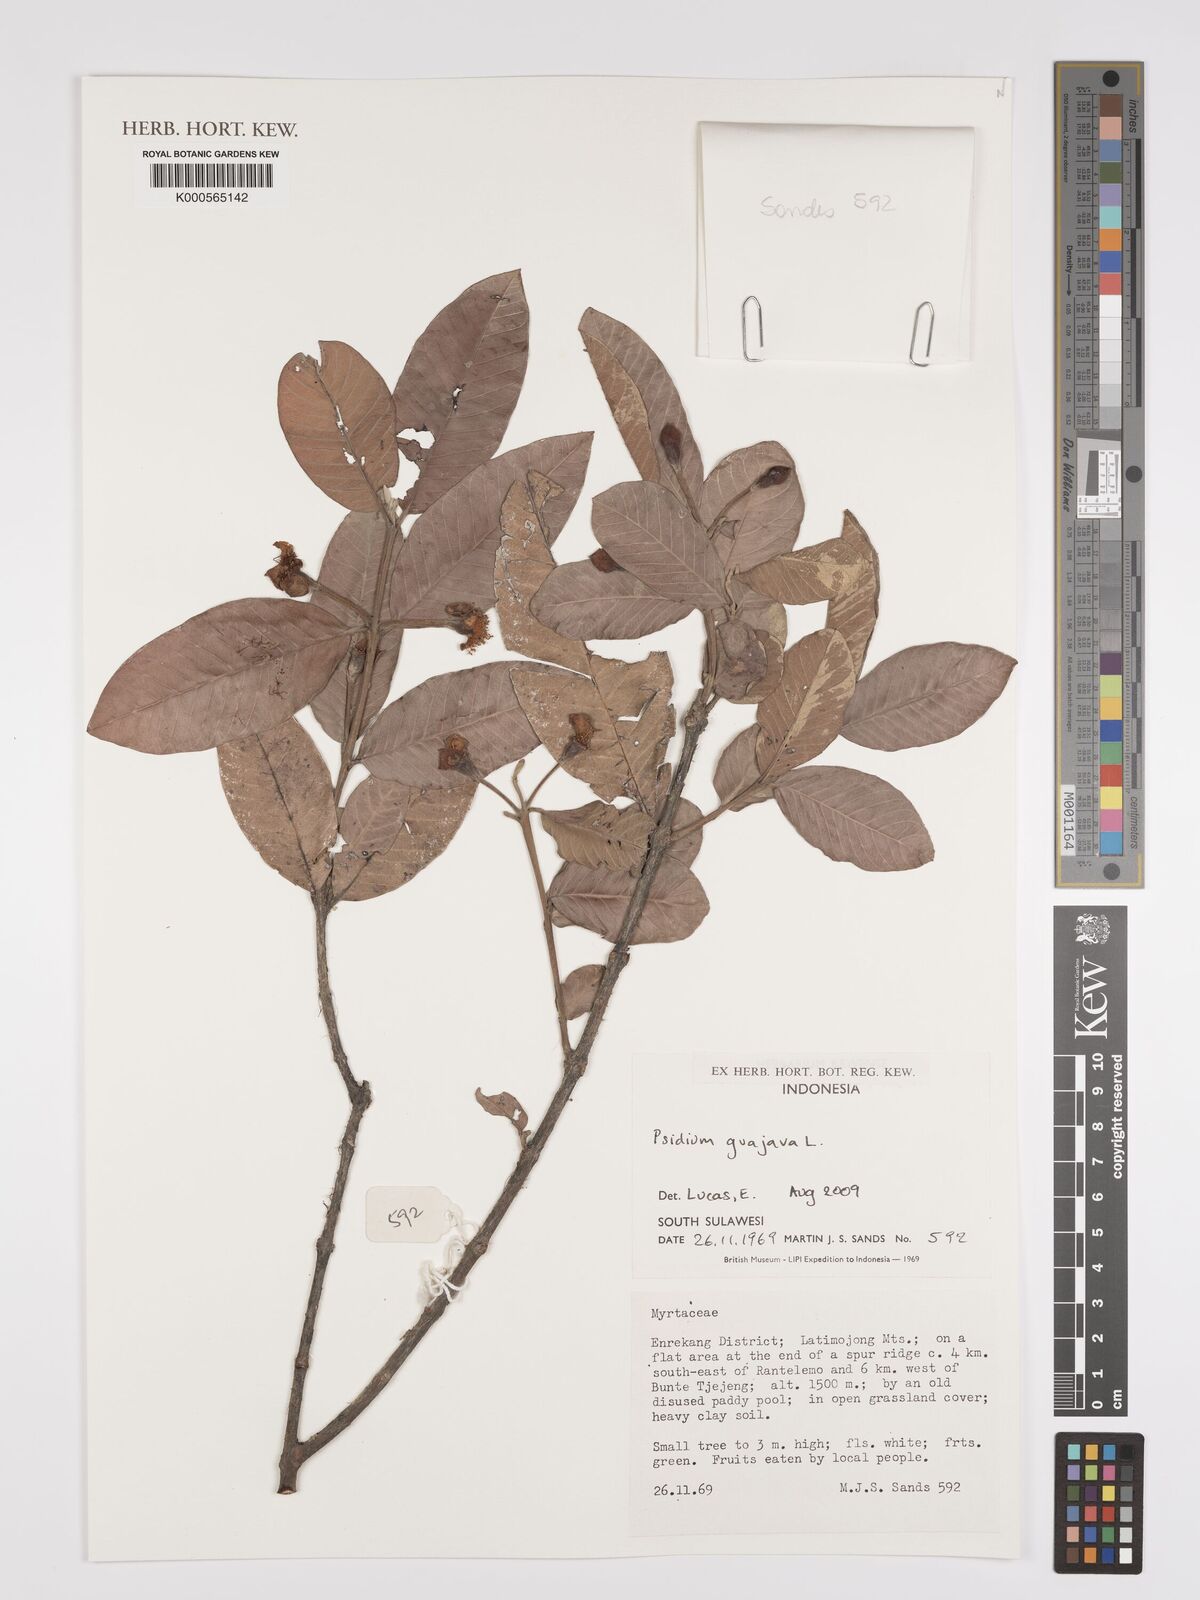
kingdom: Plantae
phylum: Tracheophyta
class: Magnoliopsida
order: Myrtales
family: Myrtaceae
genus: Psidium
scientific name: Psidium guajava
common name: Guava
